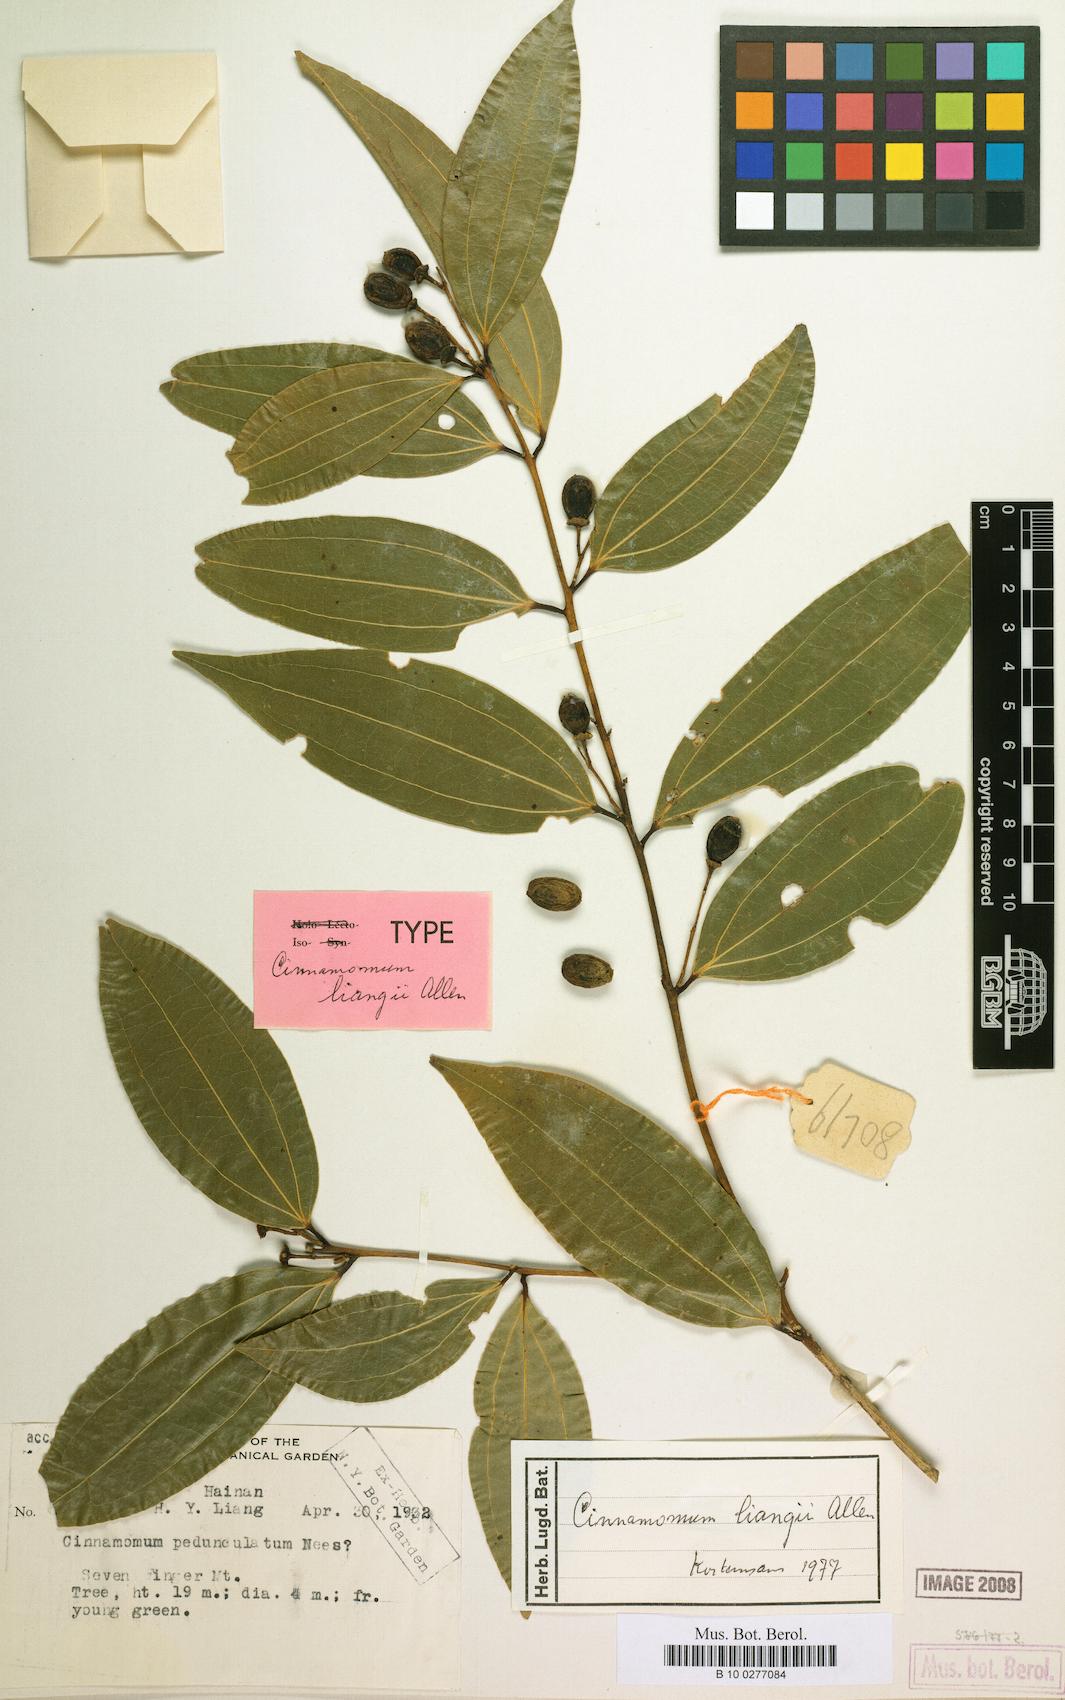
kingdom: Plantae
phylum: Tracheophyta
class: Magnoliopsida
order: Laurales
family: Lauraceae
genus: Cinnamomum
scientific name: Cinnamomum liangii
